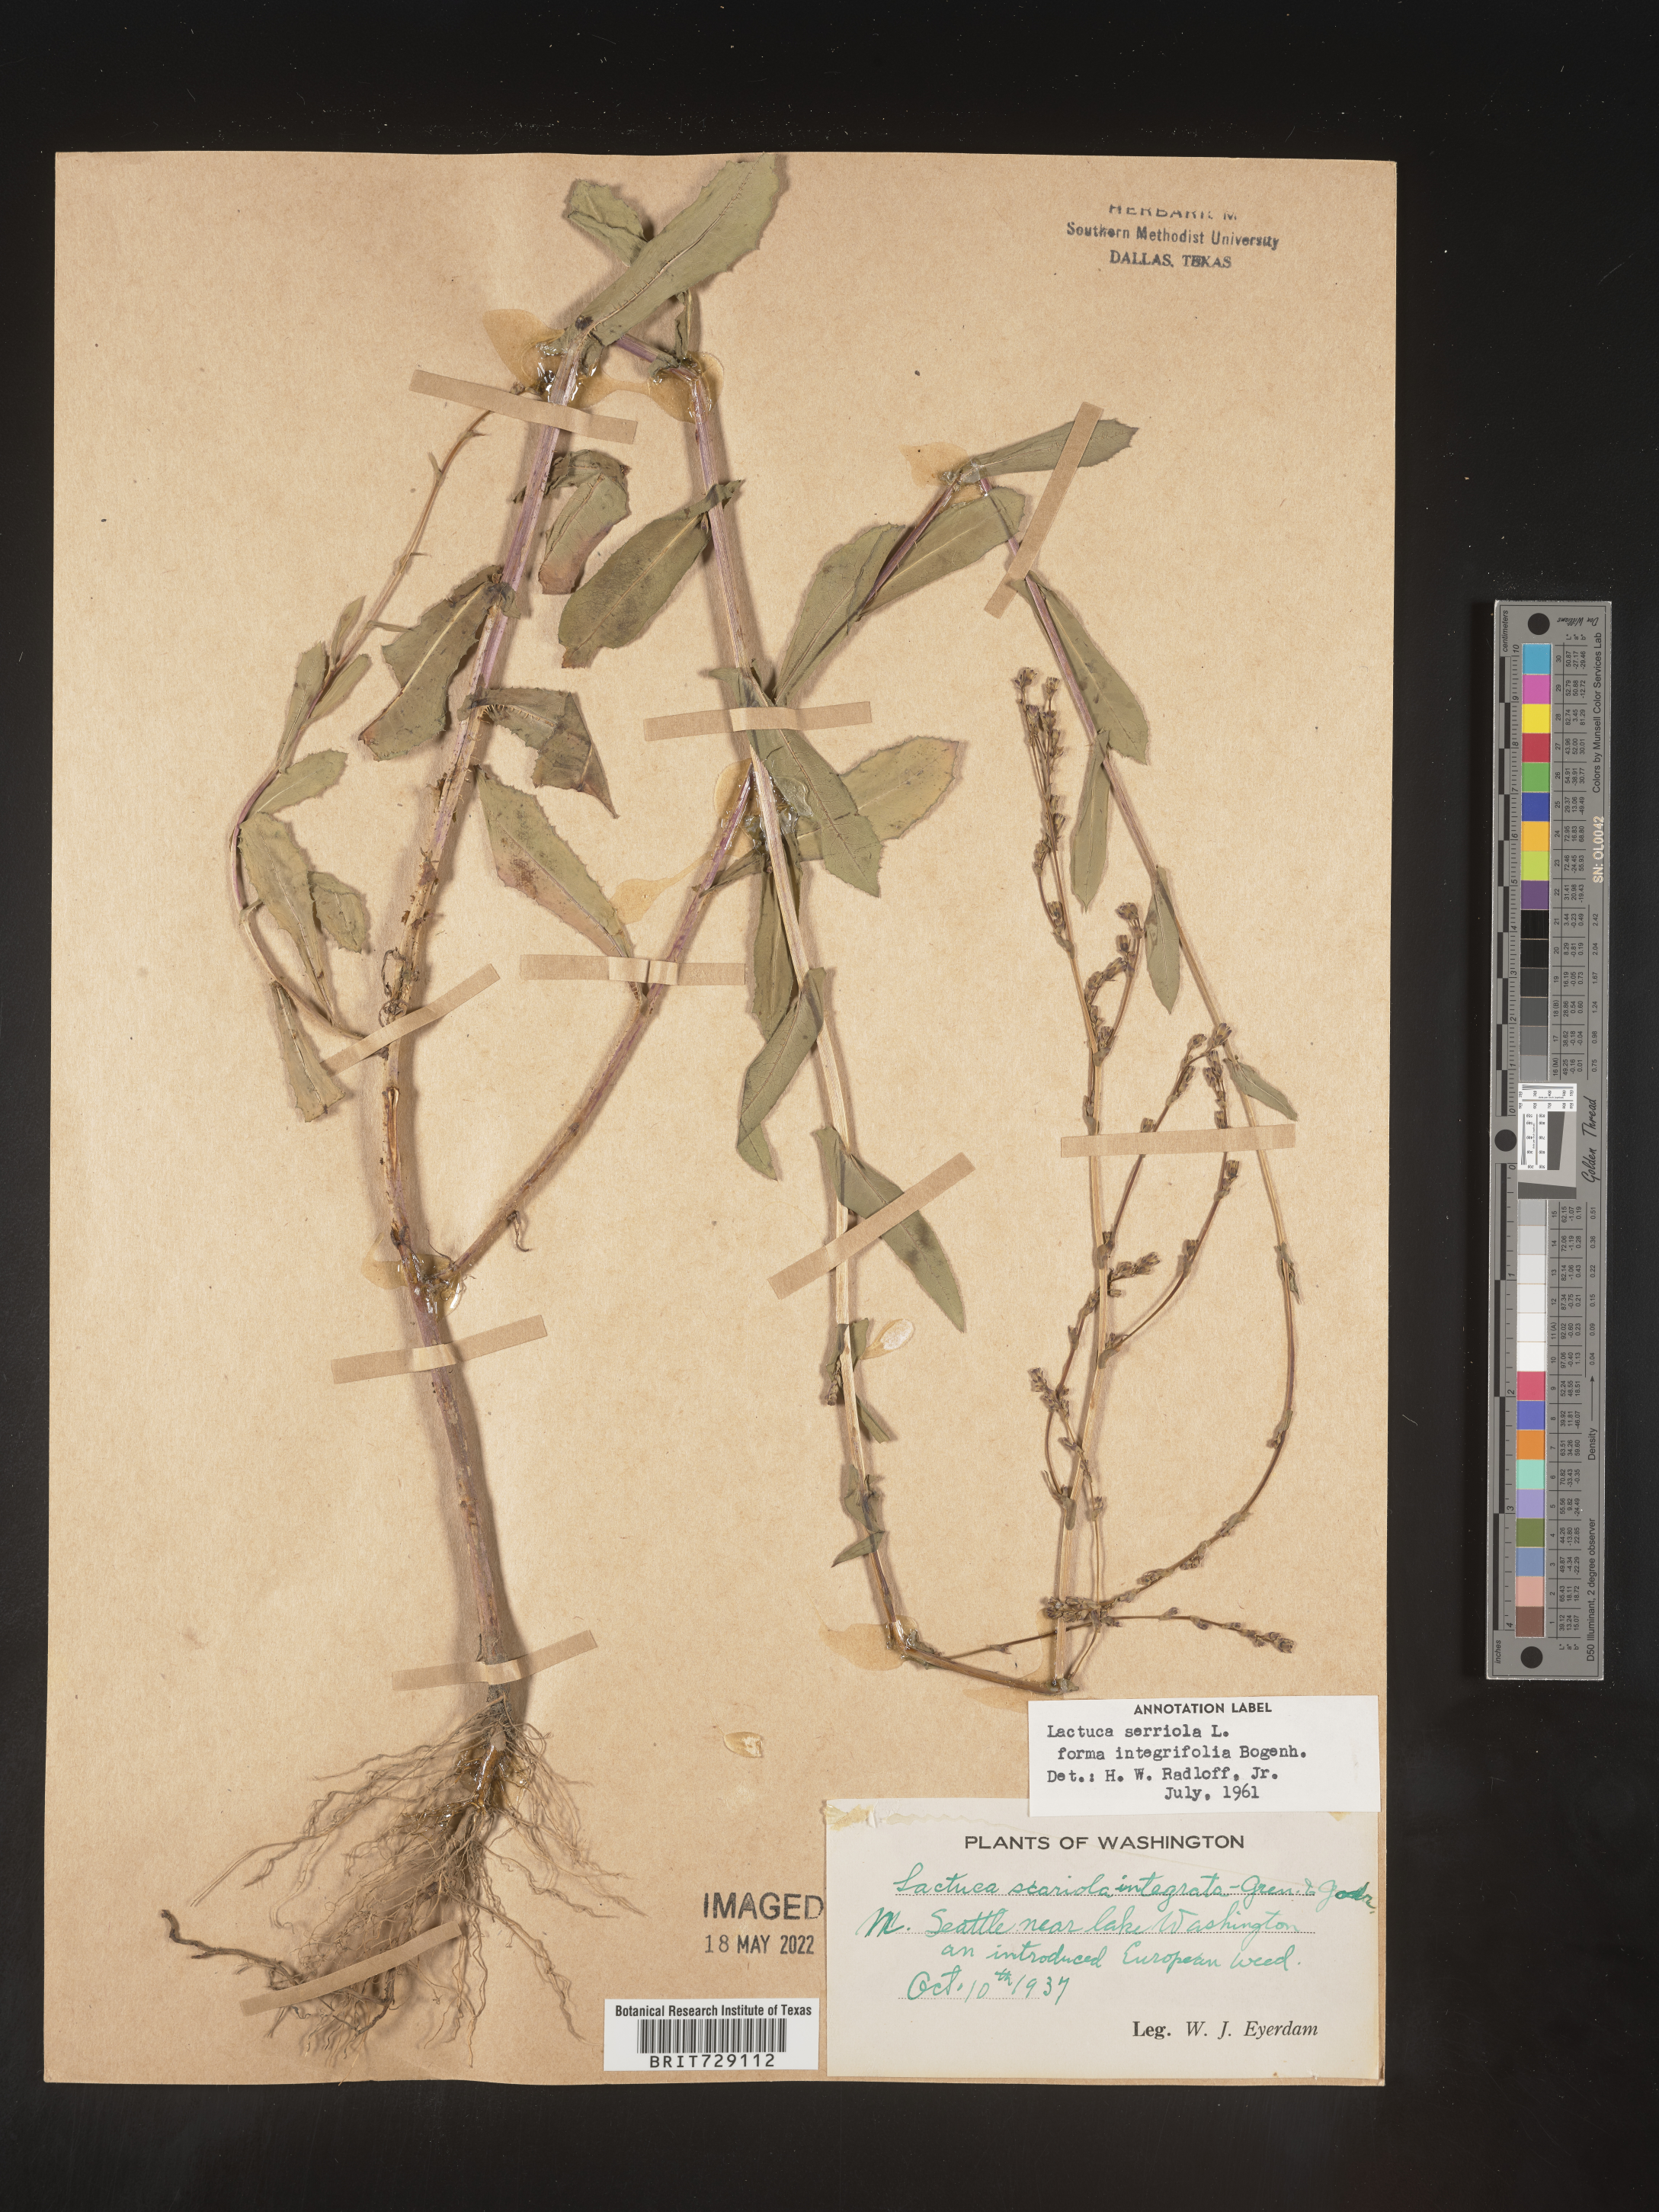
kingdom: Plantae
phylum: Tracheophyta
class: Magnoliopsida
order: Asterales
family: Asteraceae
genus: Lactuca
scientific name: Lactuca serriola
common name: Prickly lettuce
